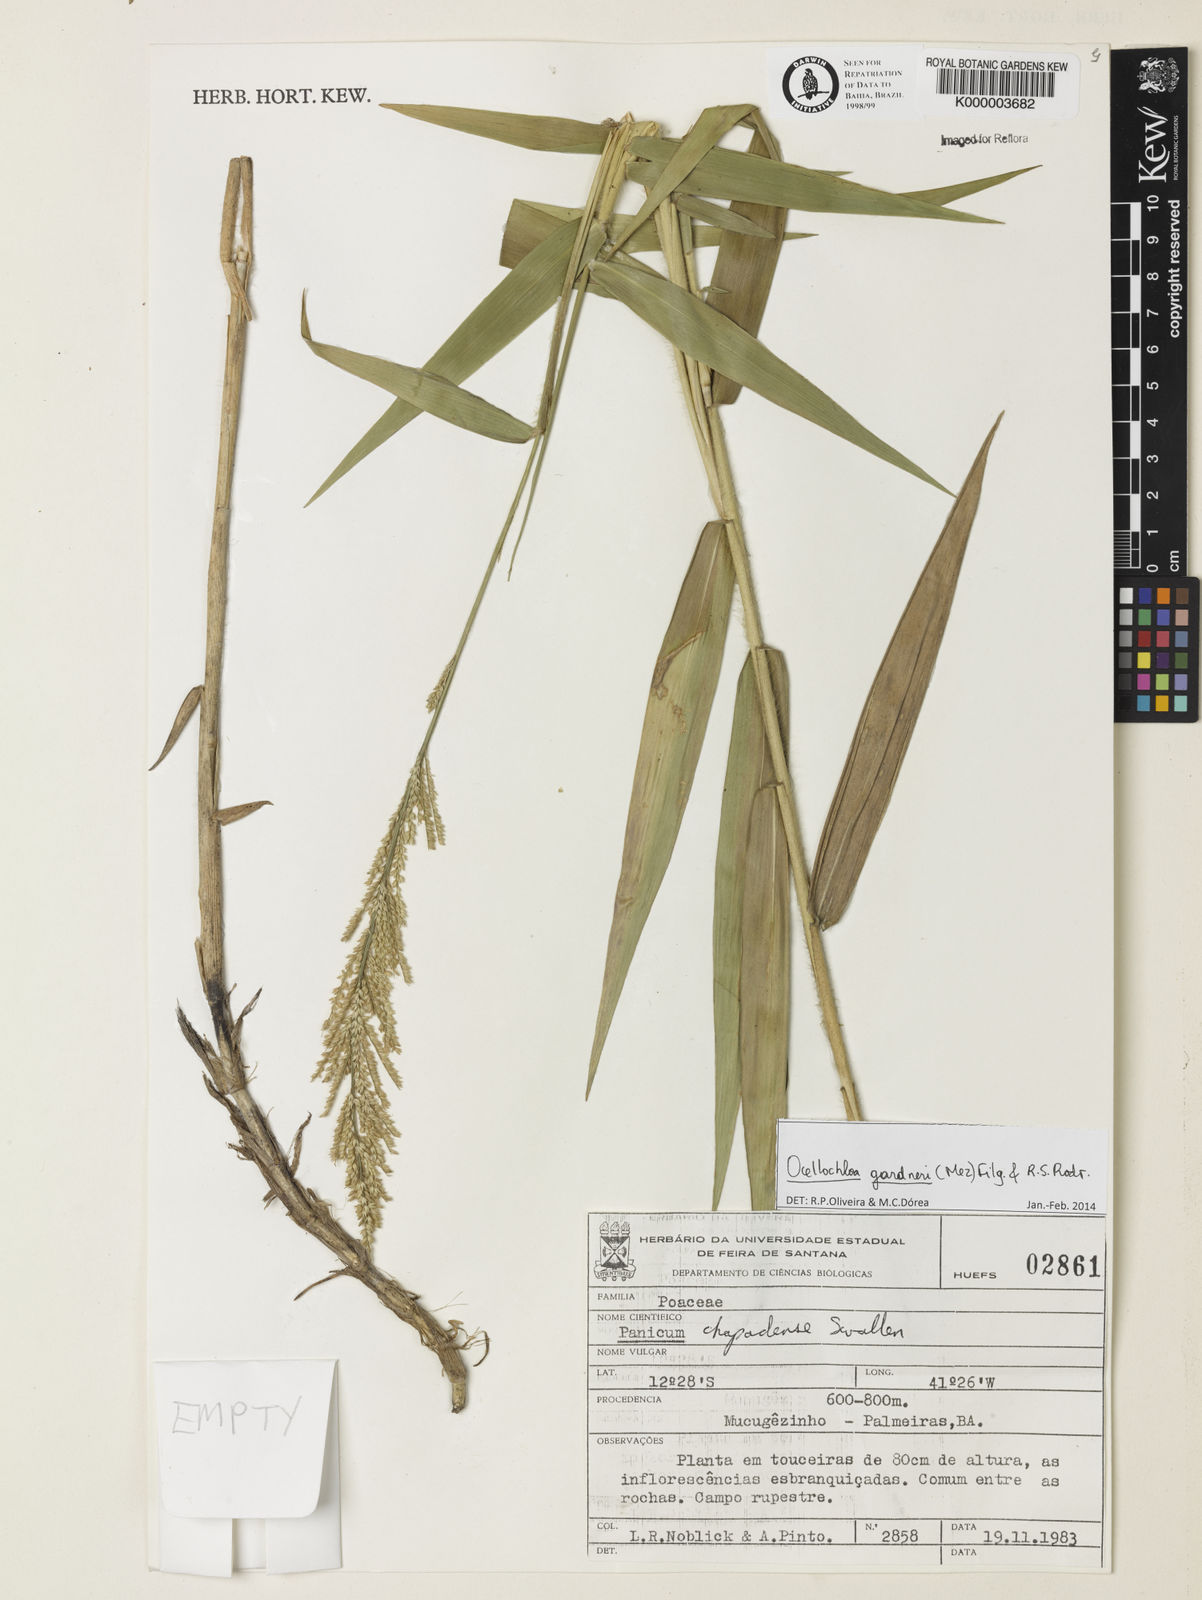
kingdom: Plantae
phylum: Tracheophyta
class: Liliopsida
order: Poales
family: Poaceae
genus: Ocellochloa
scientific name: Ocellochloa chapadensis
